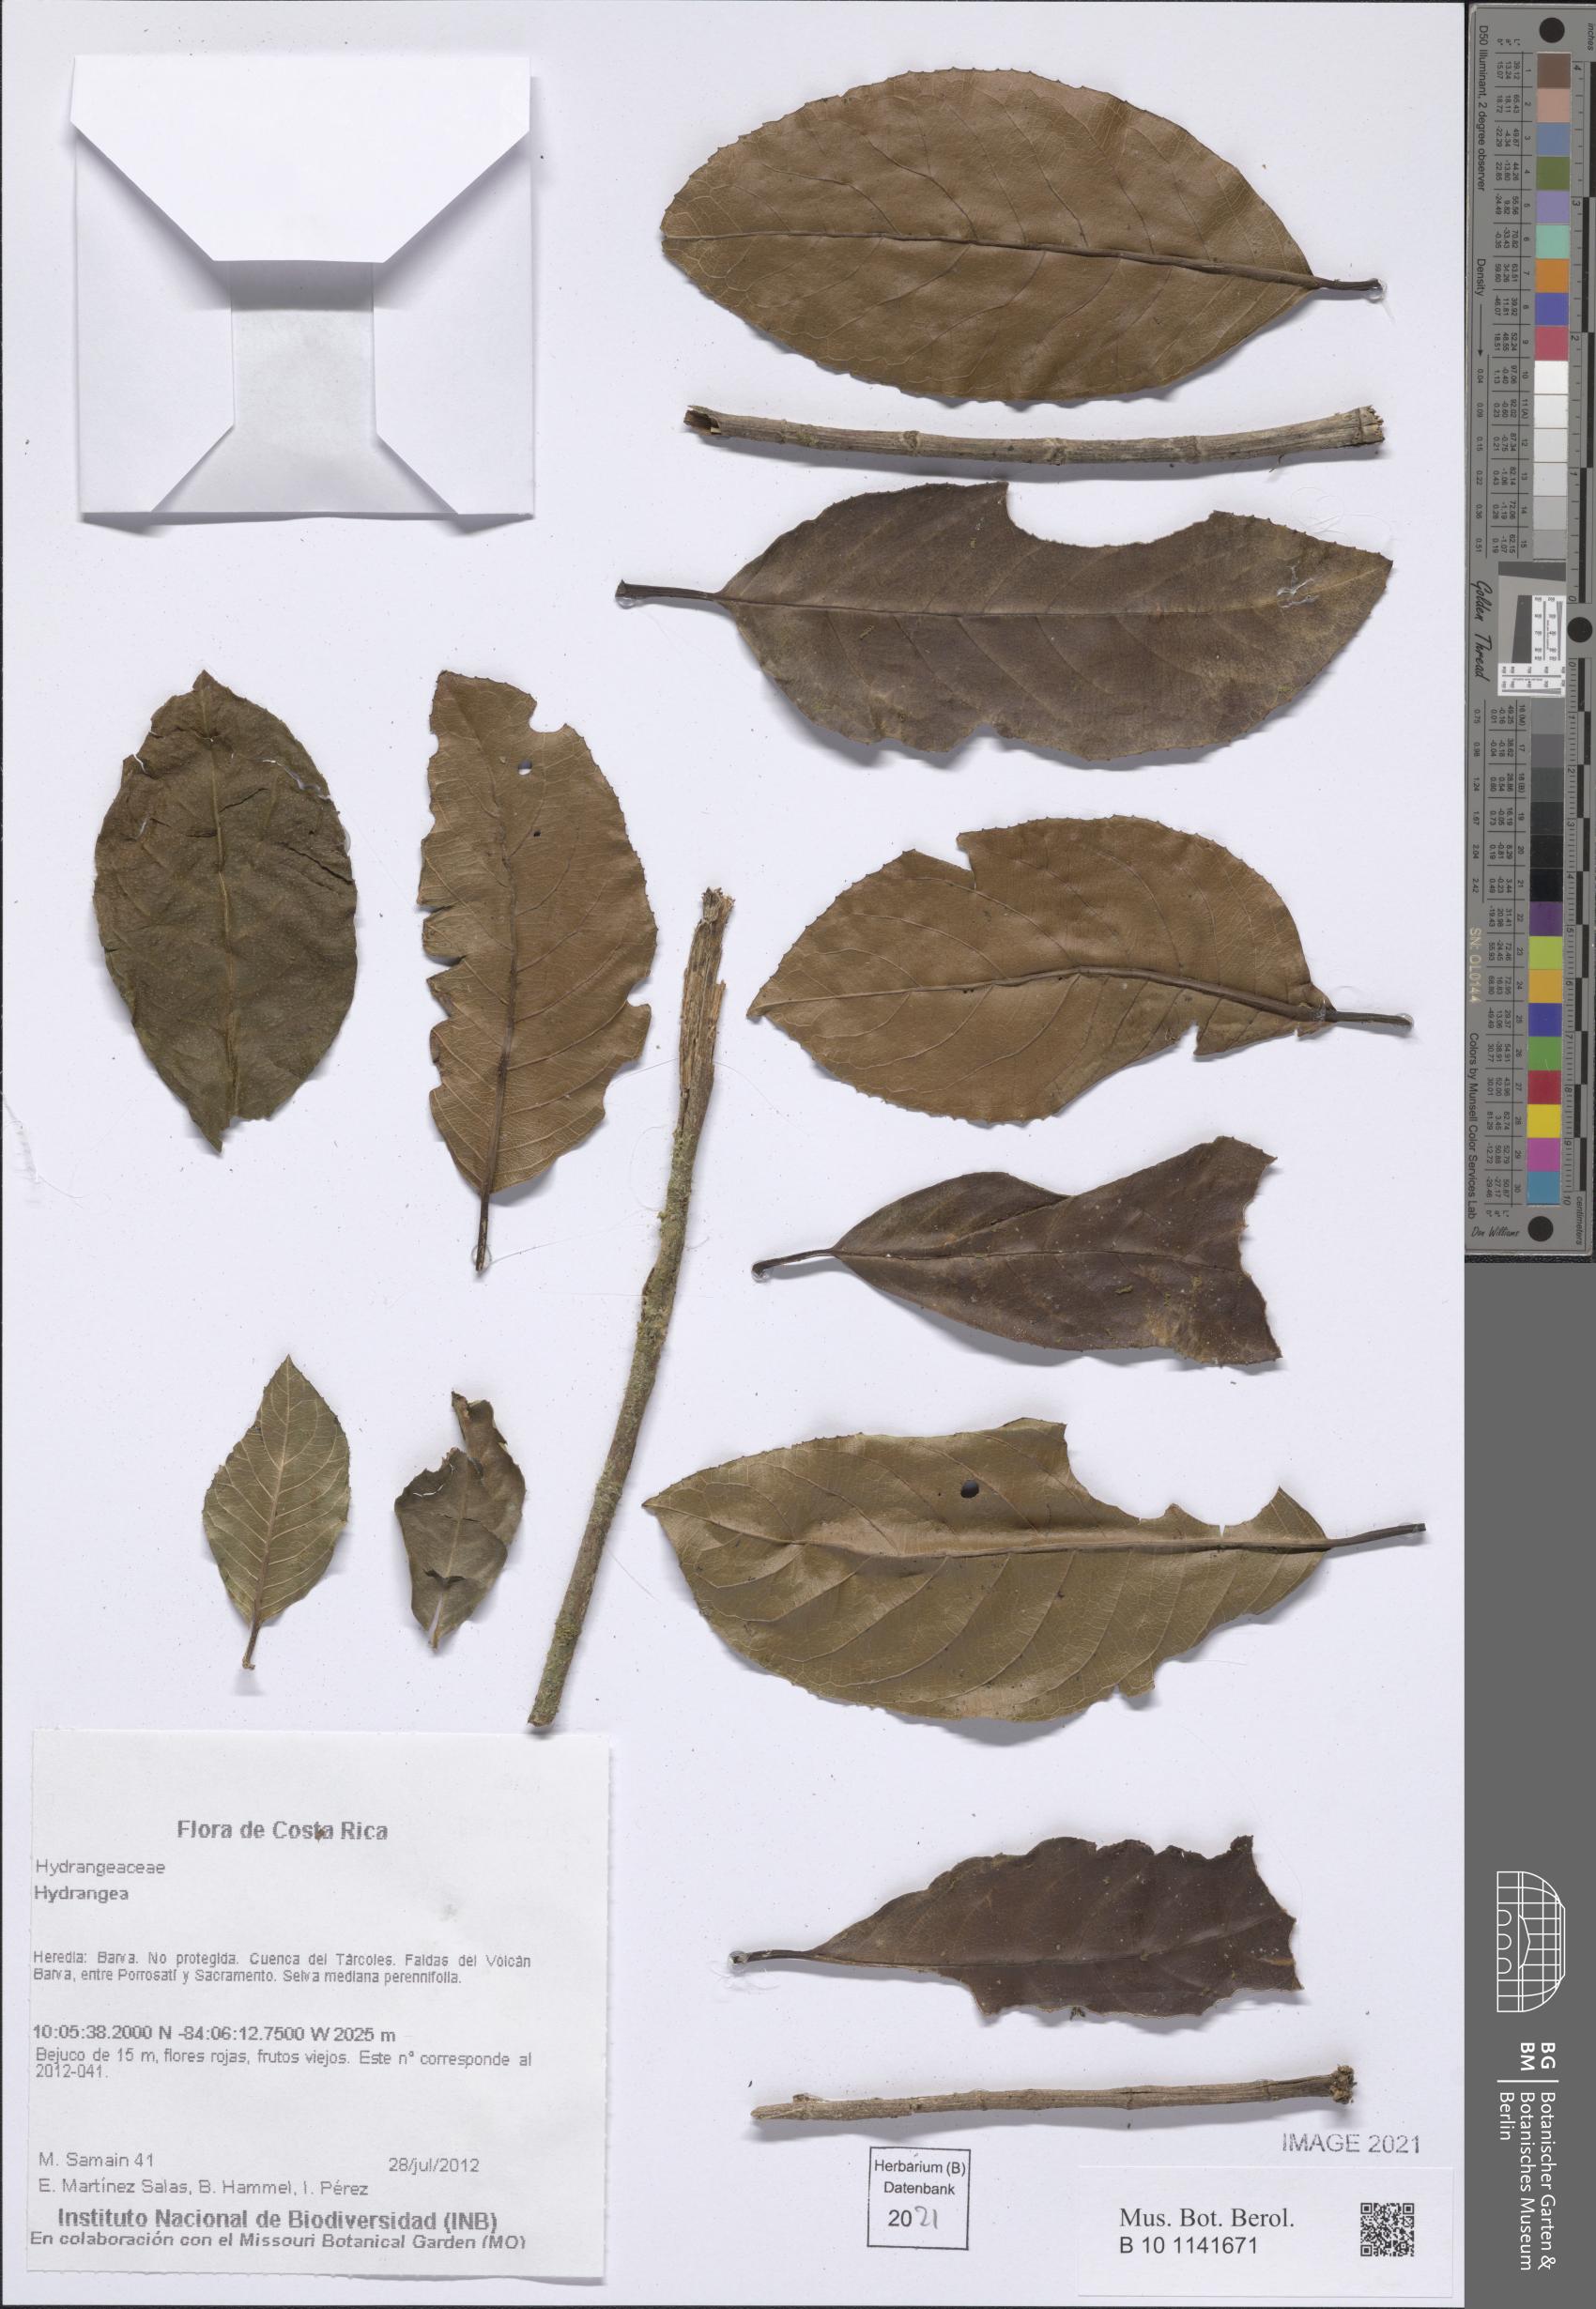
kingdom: Plantae
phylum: Tracheophyta
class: Magnoliopsida
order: Cornales
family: Hydrangeaceae
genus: Hydrangea
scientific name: Hydrangea
